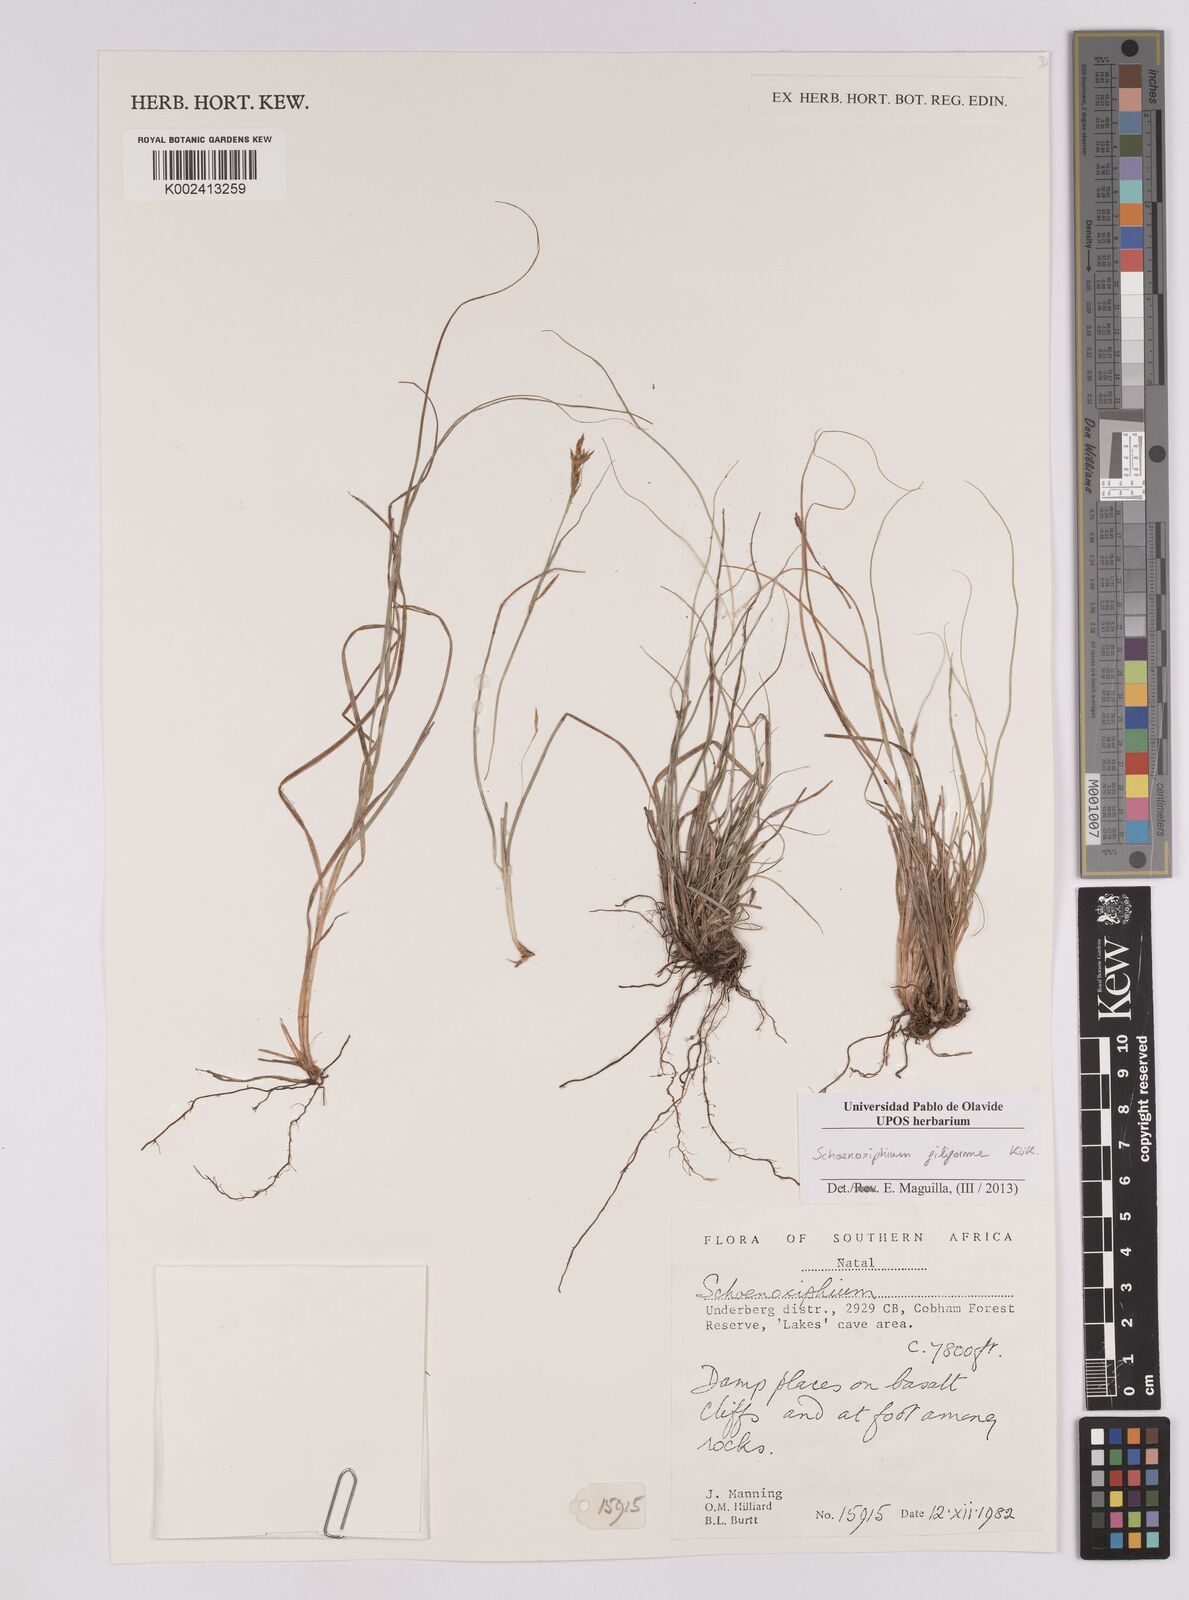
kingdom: Plantae
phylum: Tracheophyta
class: Liliopsida
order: Poales
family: Cyperaceae
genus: Carex
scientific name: Carex killickii
